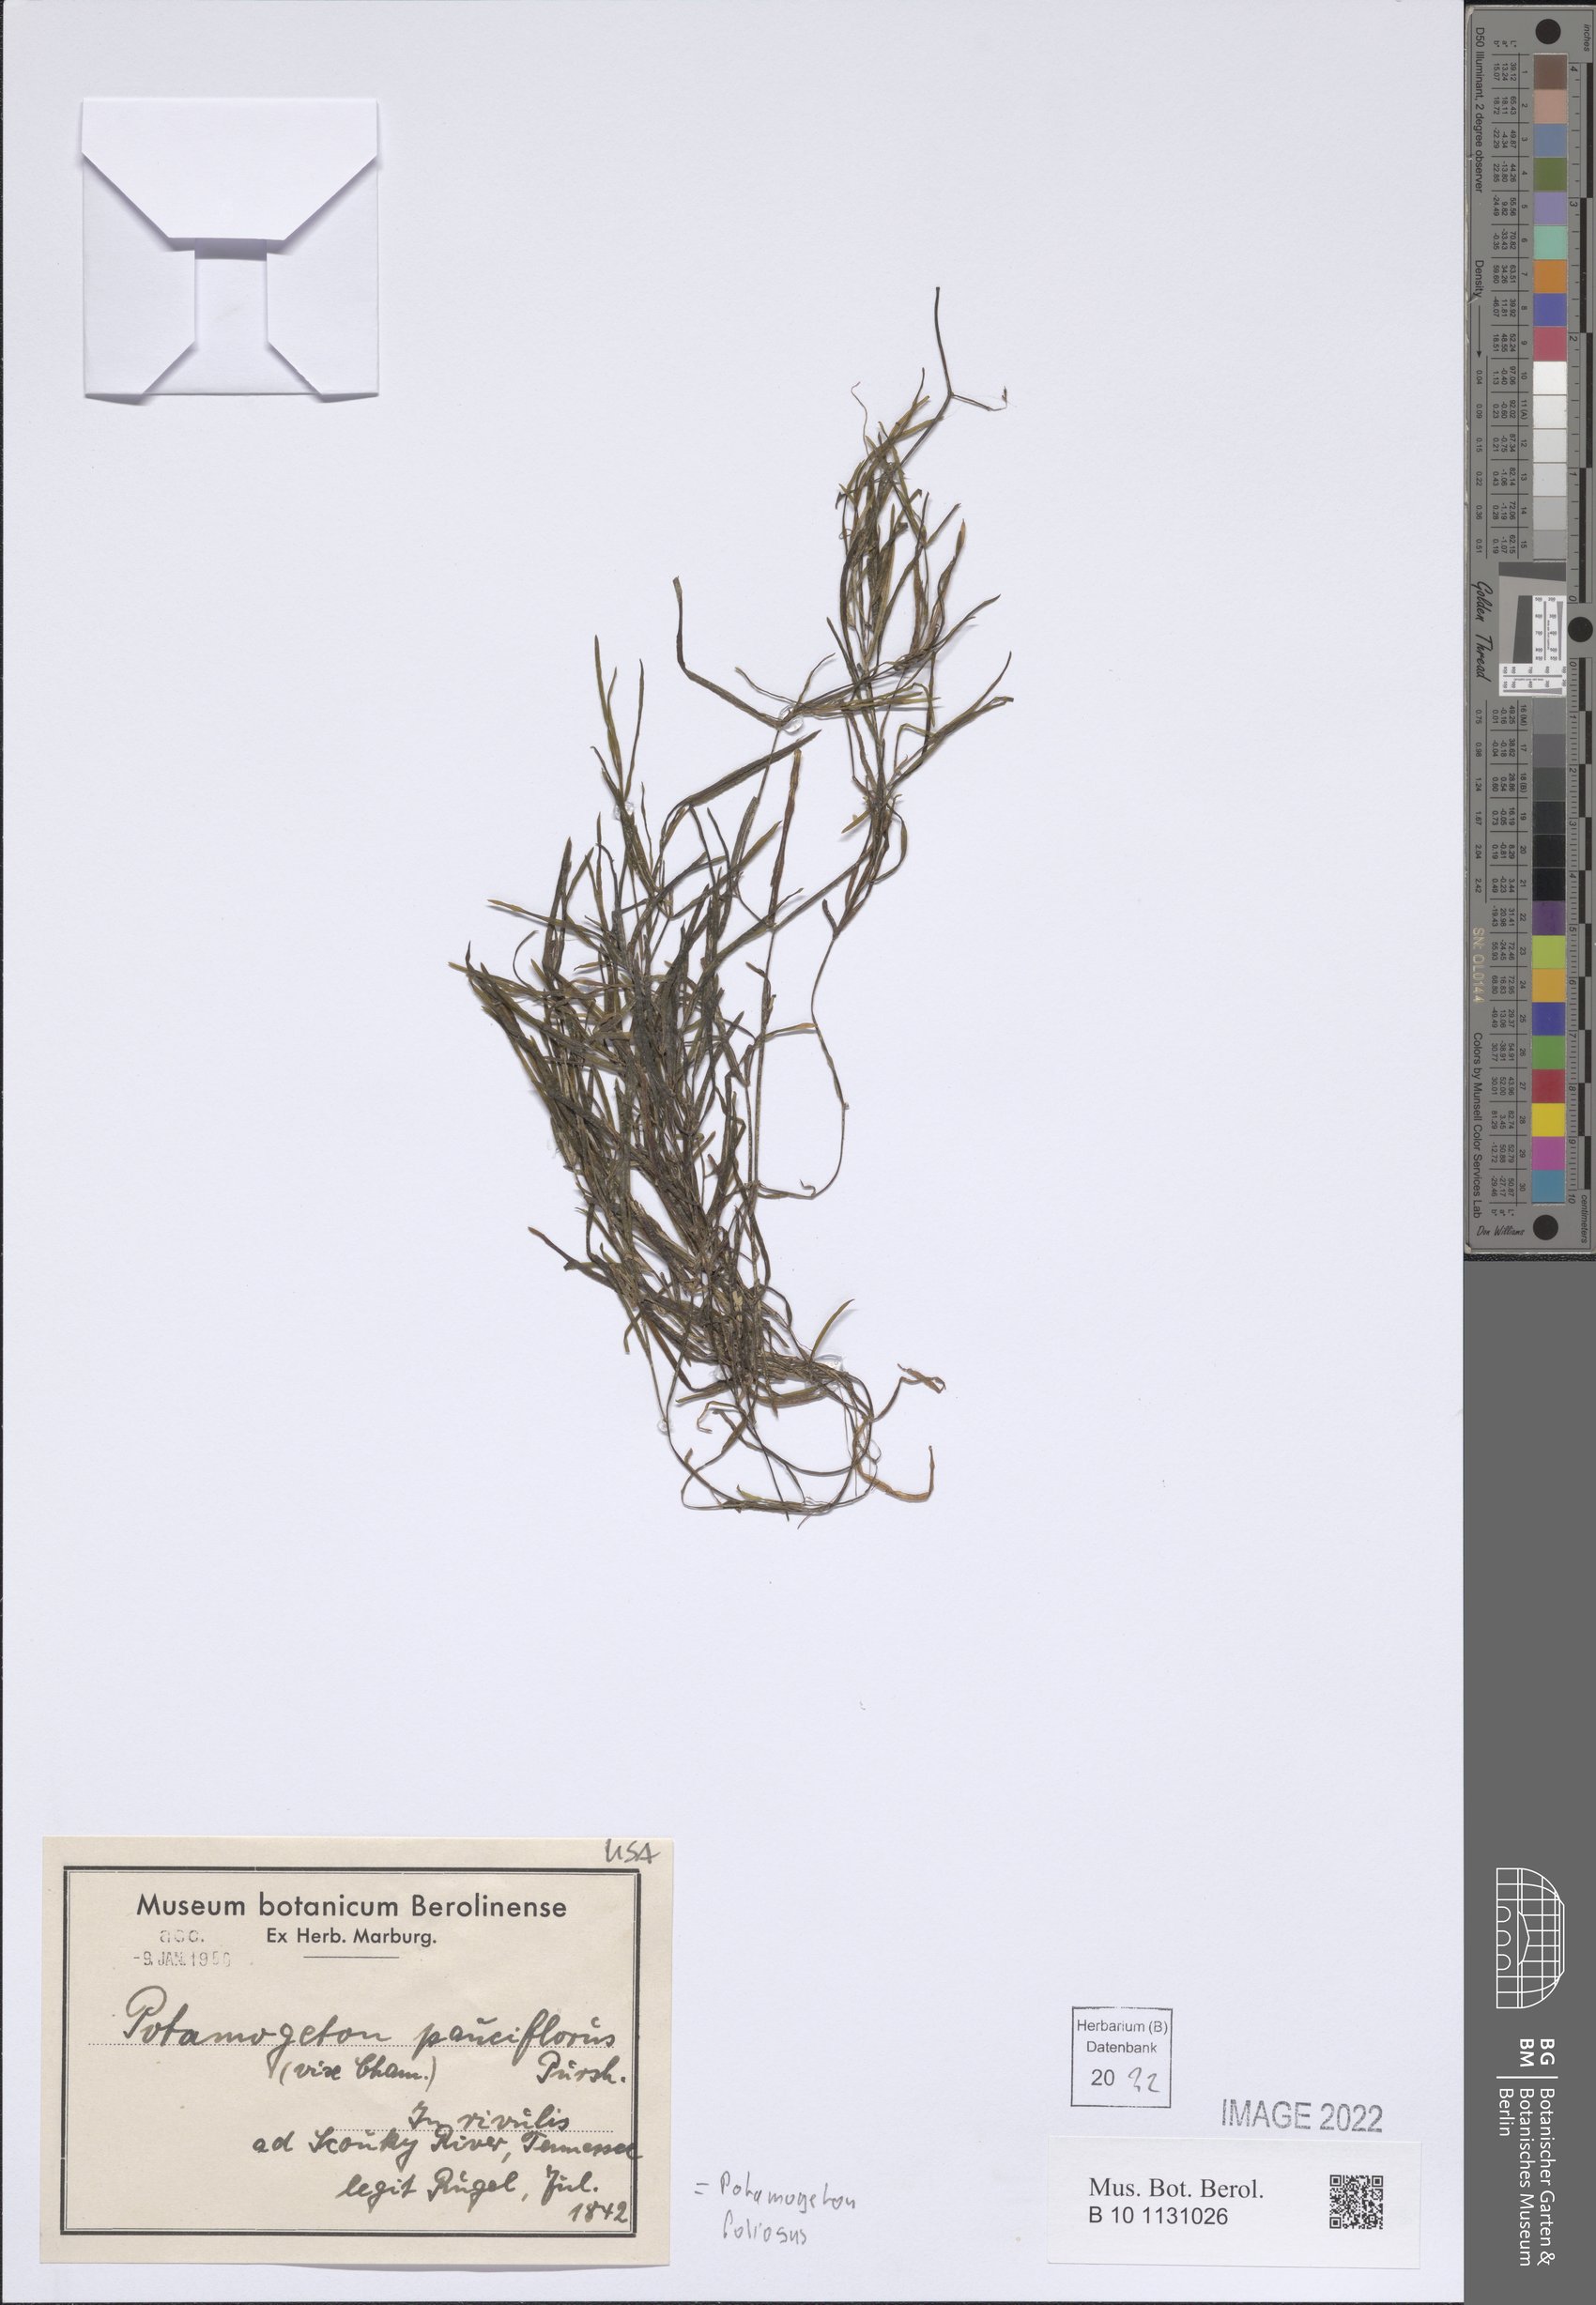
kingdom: Plantae
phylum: Tracheophyta
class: Liliopsida
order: Alismatales
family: Potamogetonaceae
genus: Potamogeton
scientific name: Potamogeton foliosus
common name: Leafy pondweed
